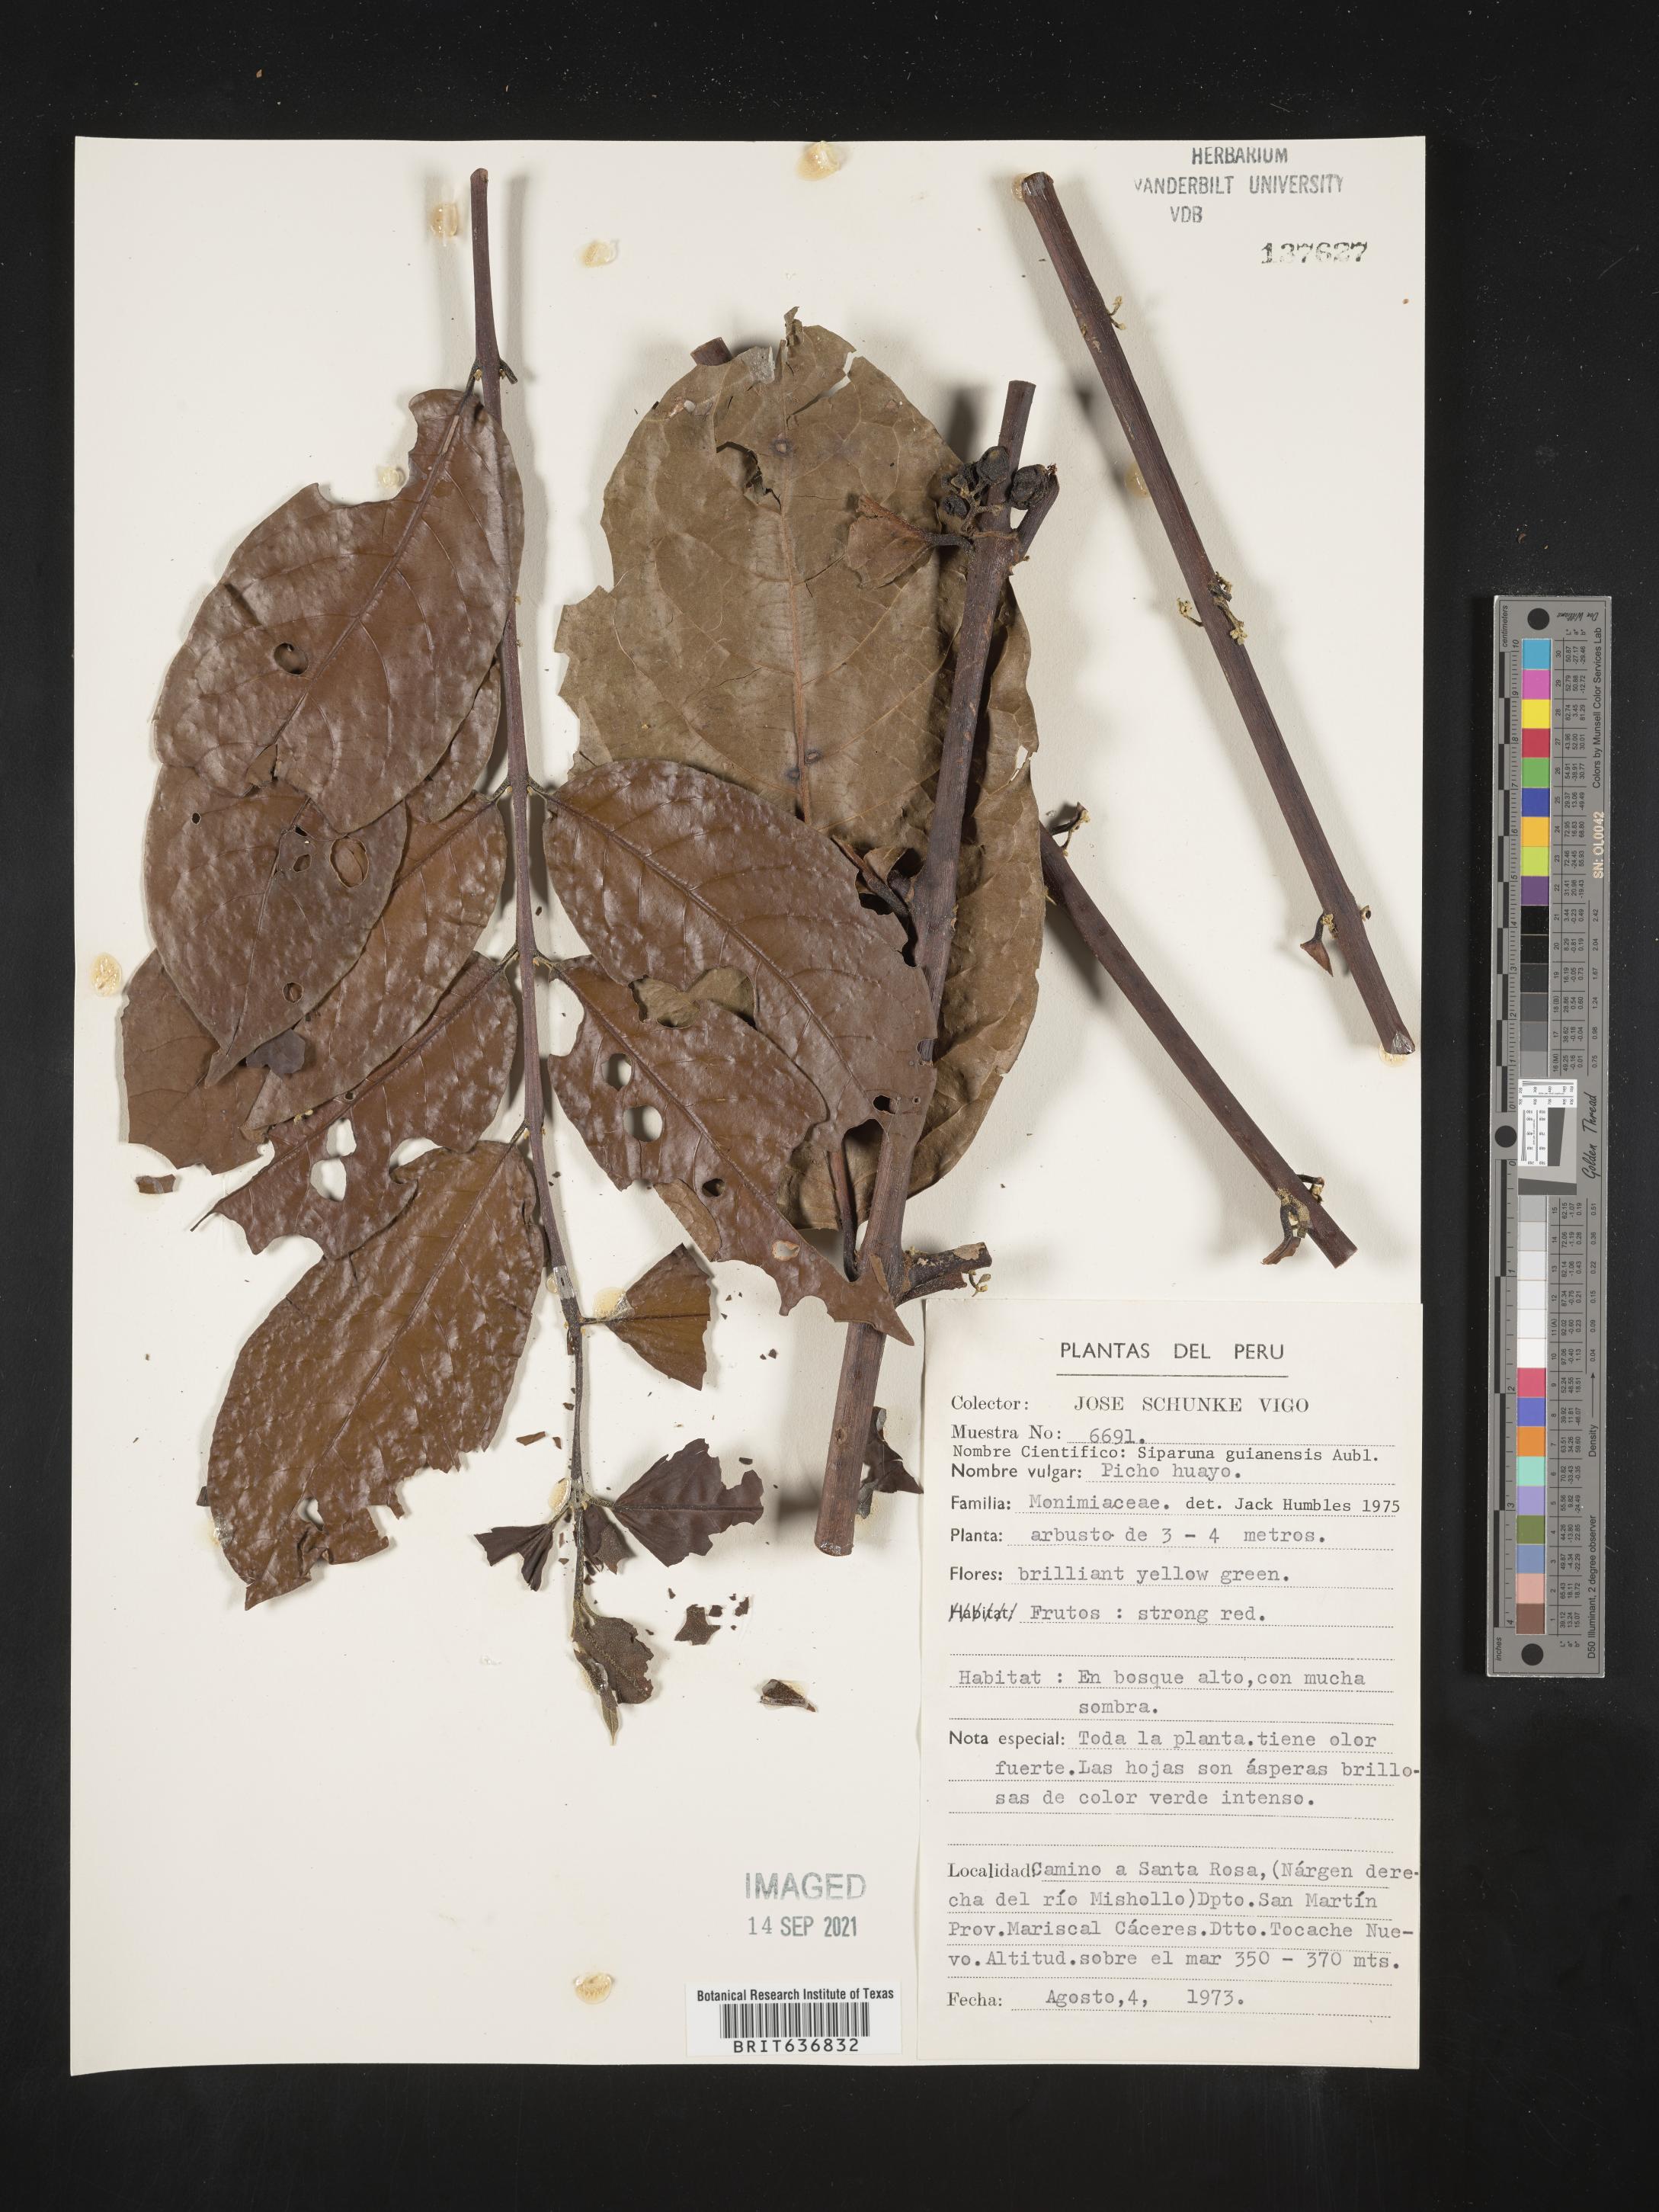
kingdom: Plantae
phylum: Tracheophyta
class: Magnoliopsida
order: Laurales
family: Siparunaceae
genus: Siparuna
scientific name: Siparuna
